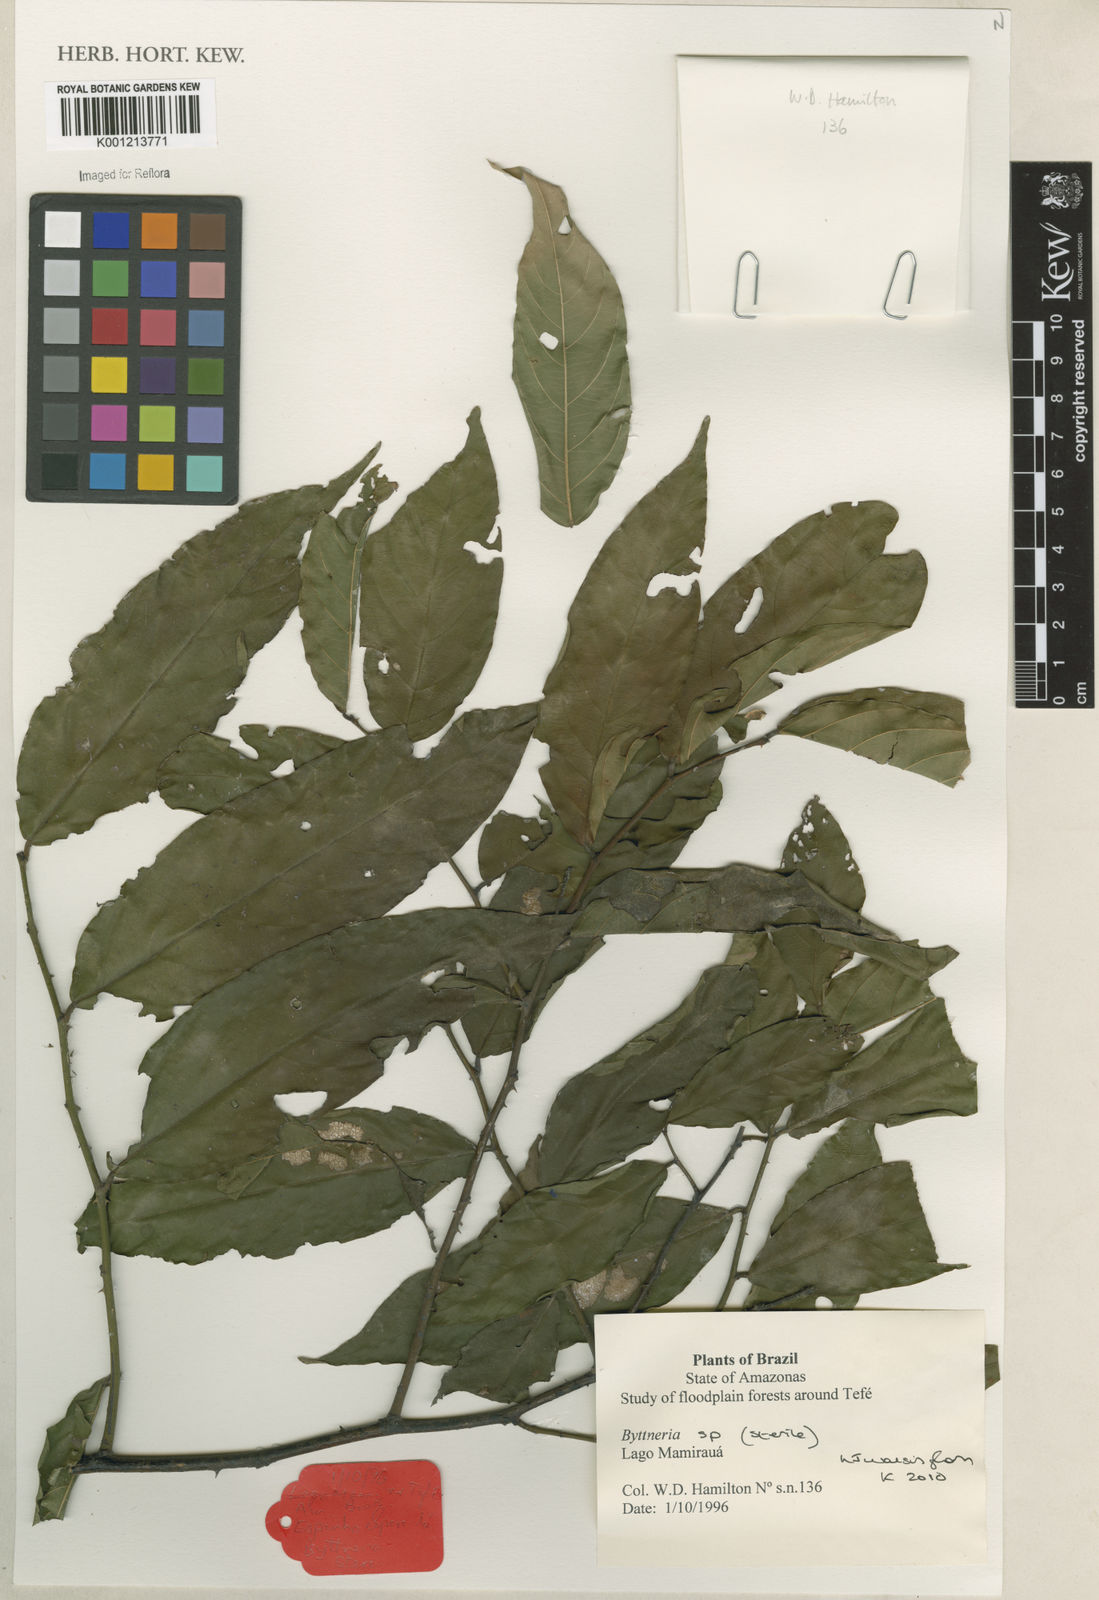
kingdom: Plantae
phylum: Tracheophyta
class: Magnoliopsida
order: Malvales
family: Malvaceae
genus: Byttneria
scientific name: Byttneria
